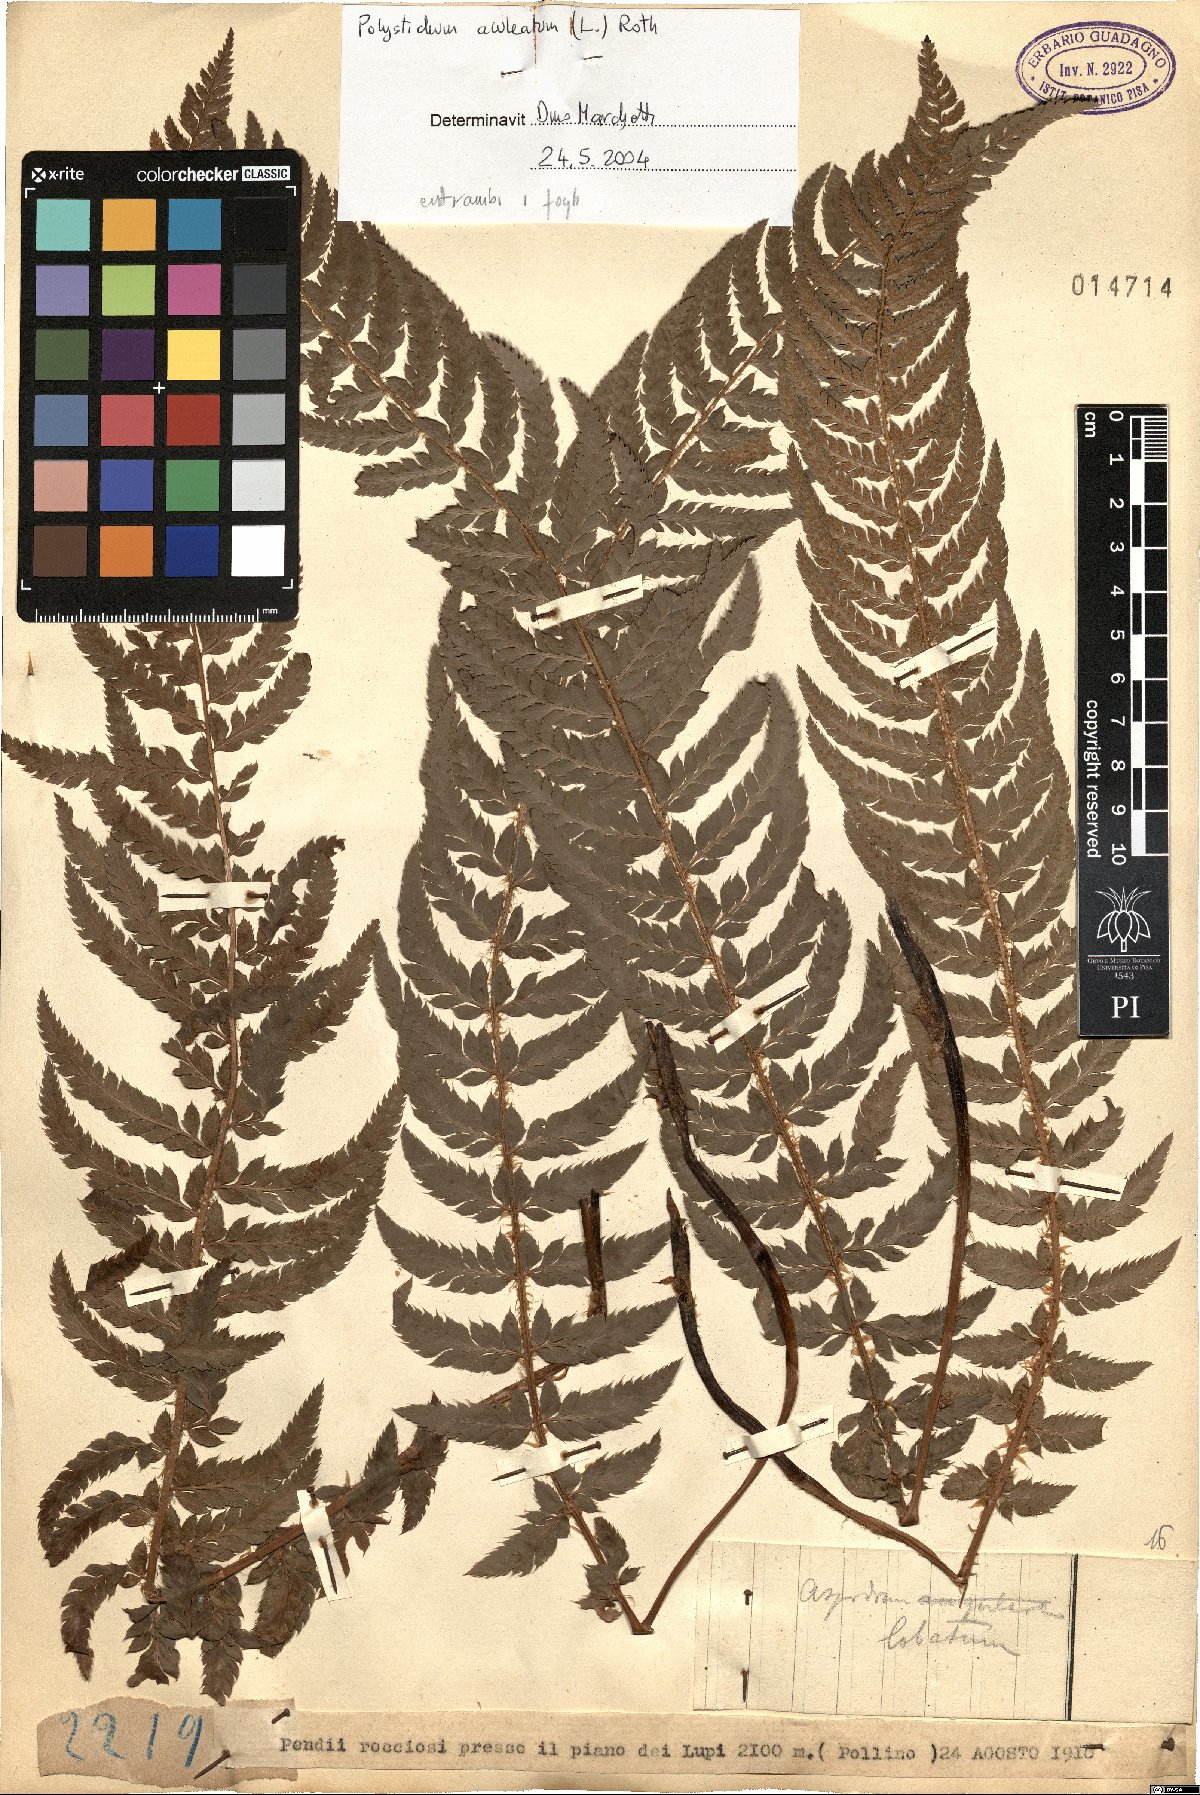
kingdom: Plantae
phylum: Tracheophyta
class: Polypodiopsida
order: Polypodiales
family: Dryopteridaceae
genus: Polystichum
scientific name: Polystichum aculeatum
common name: Hard shield-fern
